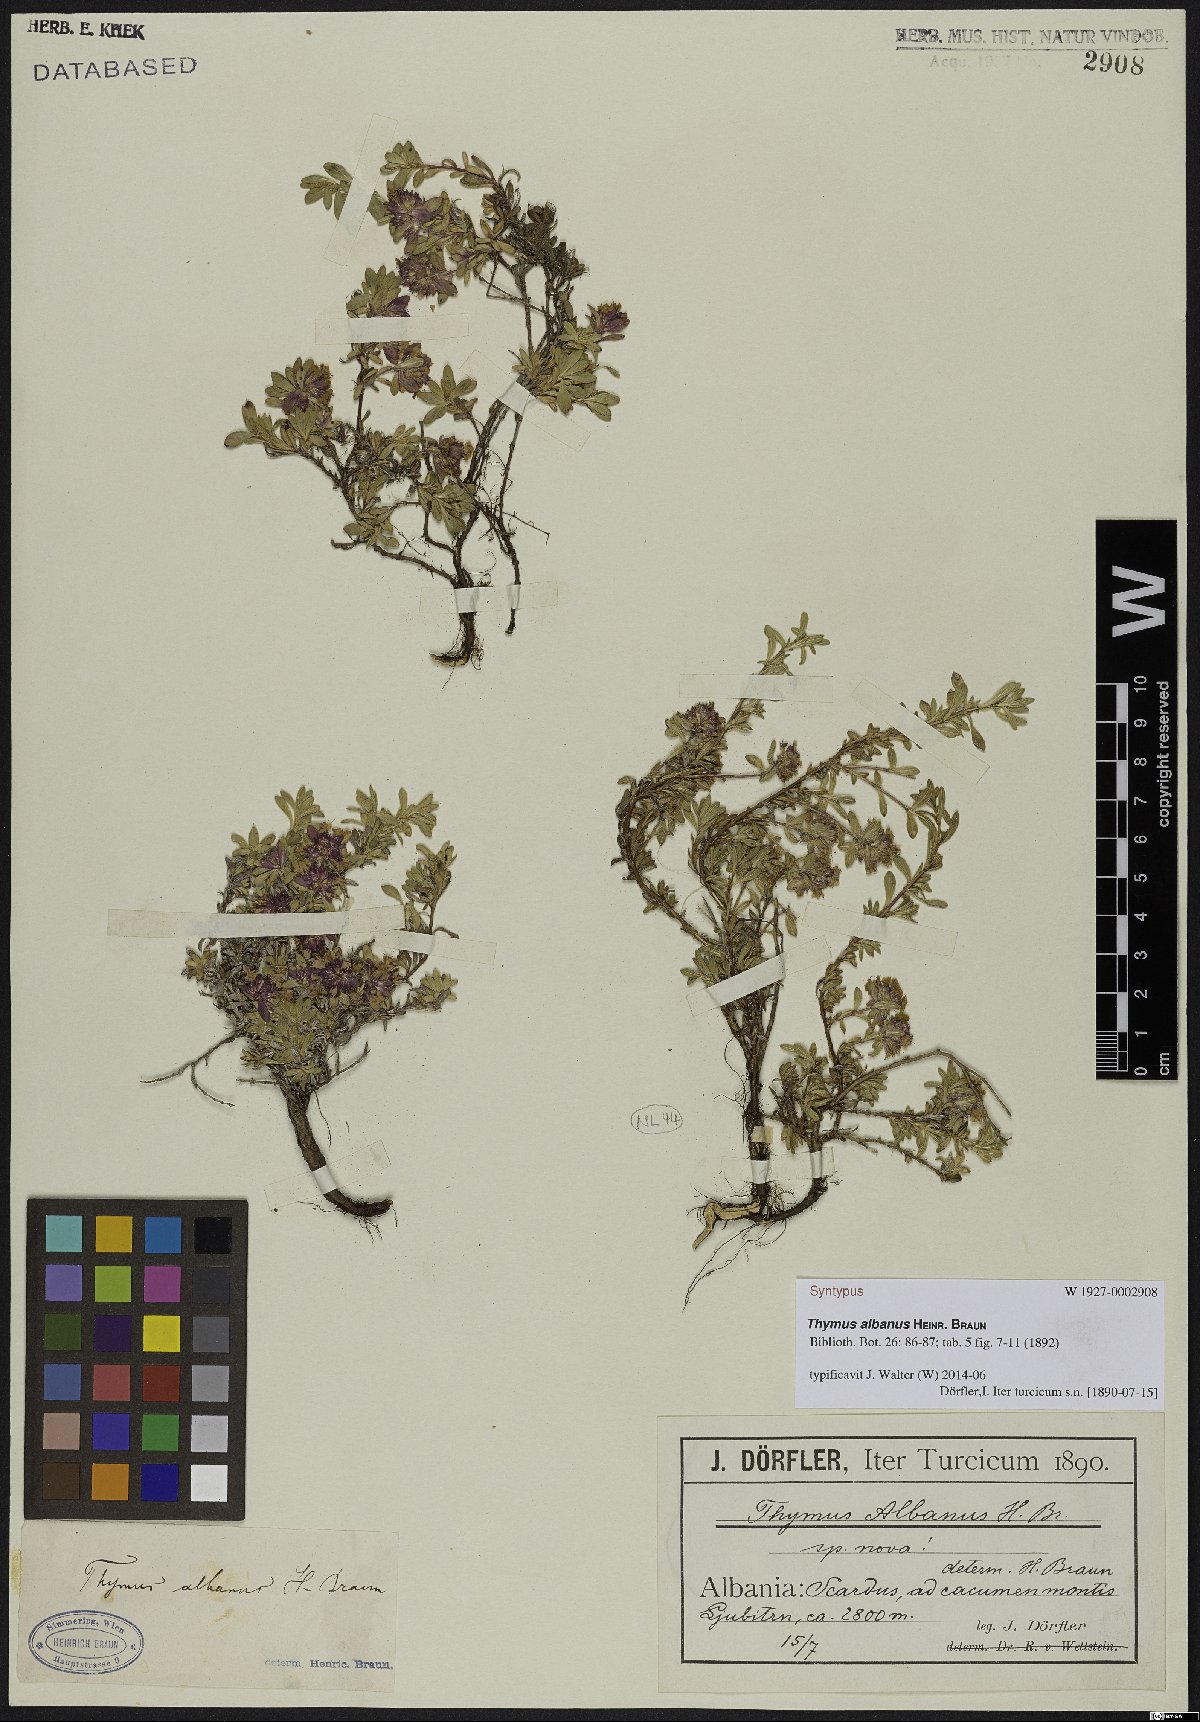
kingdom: Plantae
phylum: Tracheophyta
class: Magnoliopsida
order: Lamiales
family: Lamiaceae
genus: Thymus
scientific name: Thymus albanus
